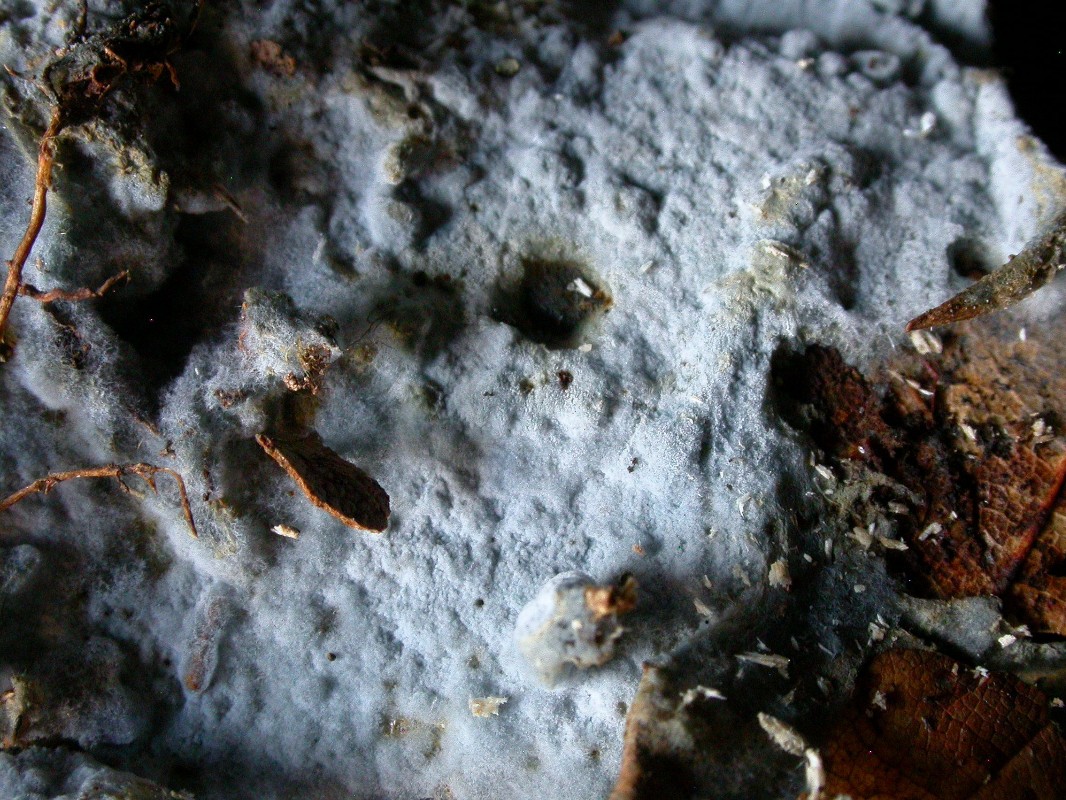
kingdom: Fungi
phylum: Basidiomycota
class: Agaricomycetes
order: Atheliales
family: Atheliaceae
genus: Byssocorticium
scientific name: Byssocorticium atrovirens
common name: blå førnehinde
